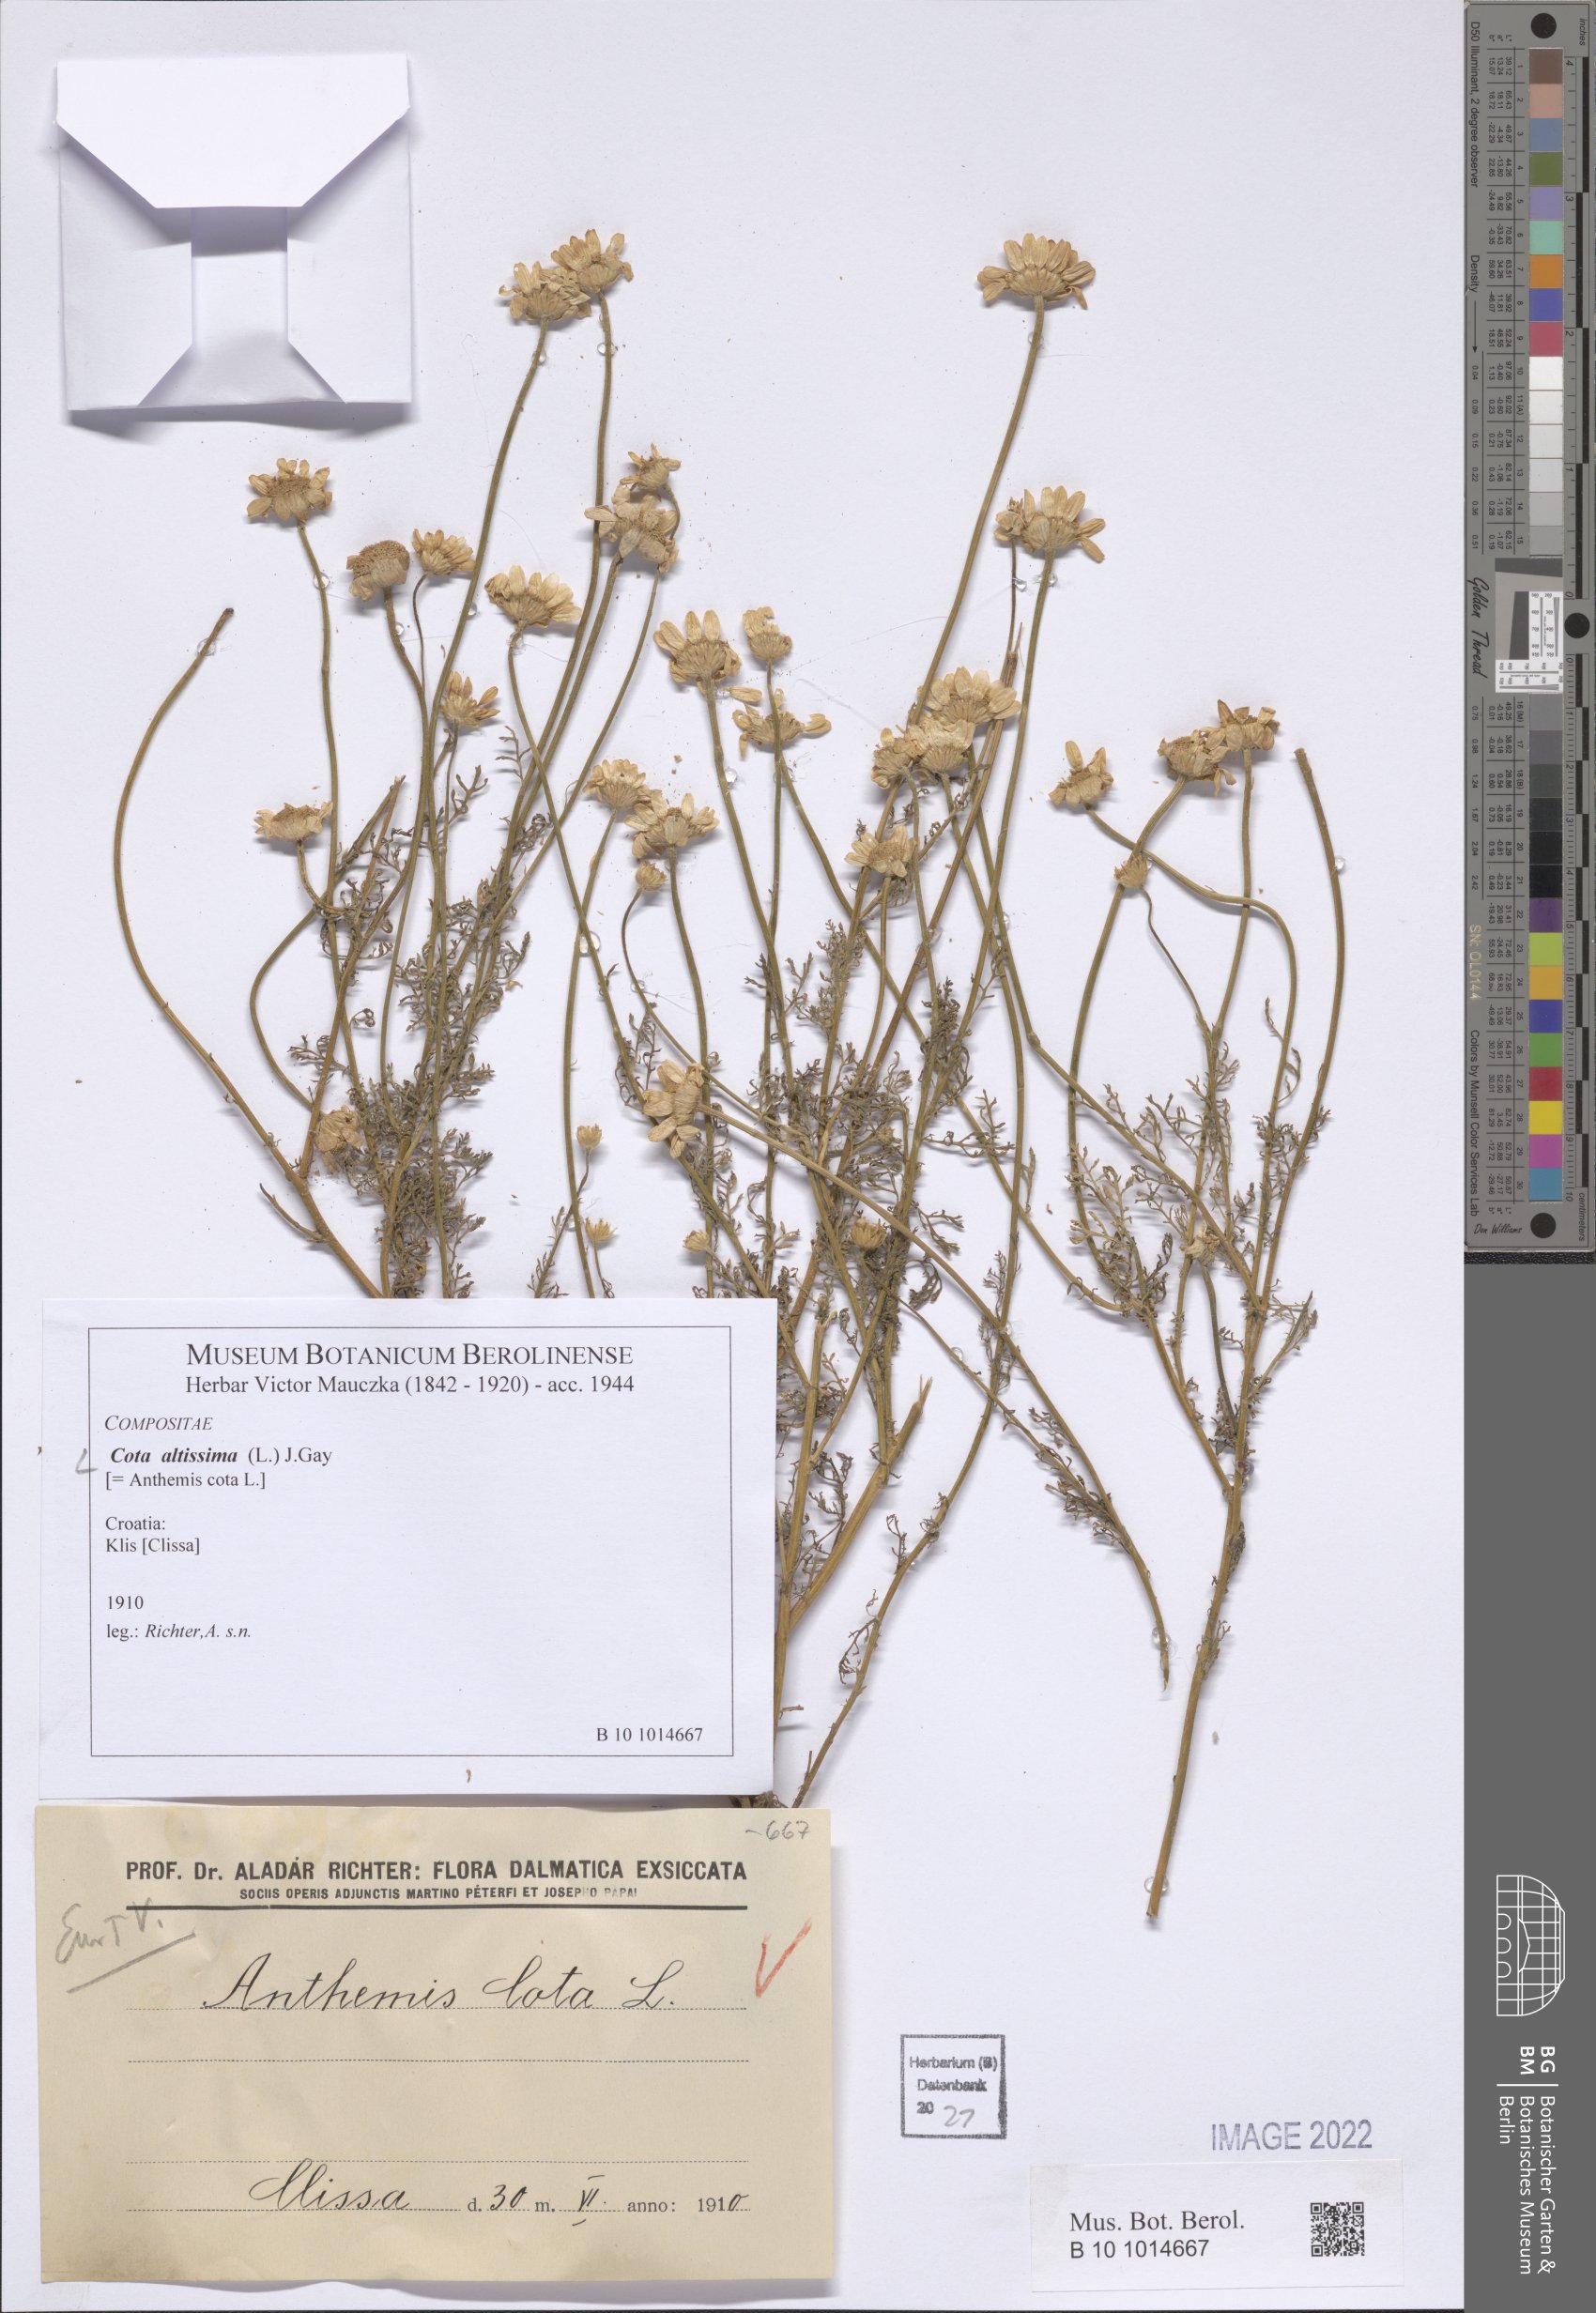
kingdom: Plantae
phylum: Tracheophyta
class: Magnoliopsida
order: Asterales
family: Asteraceae
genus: Cota
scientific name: Cota altissima
